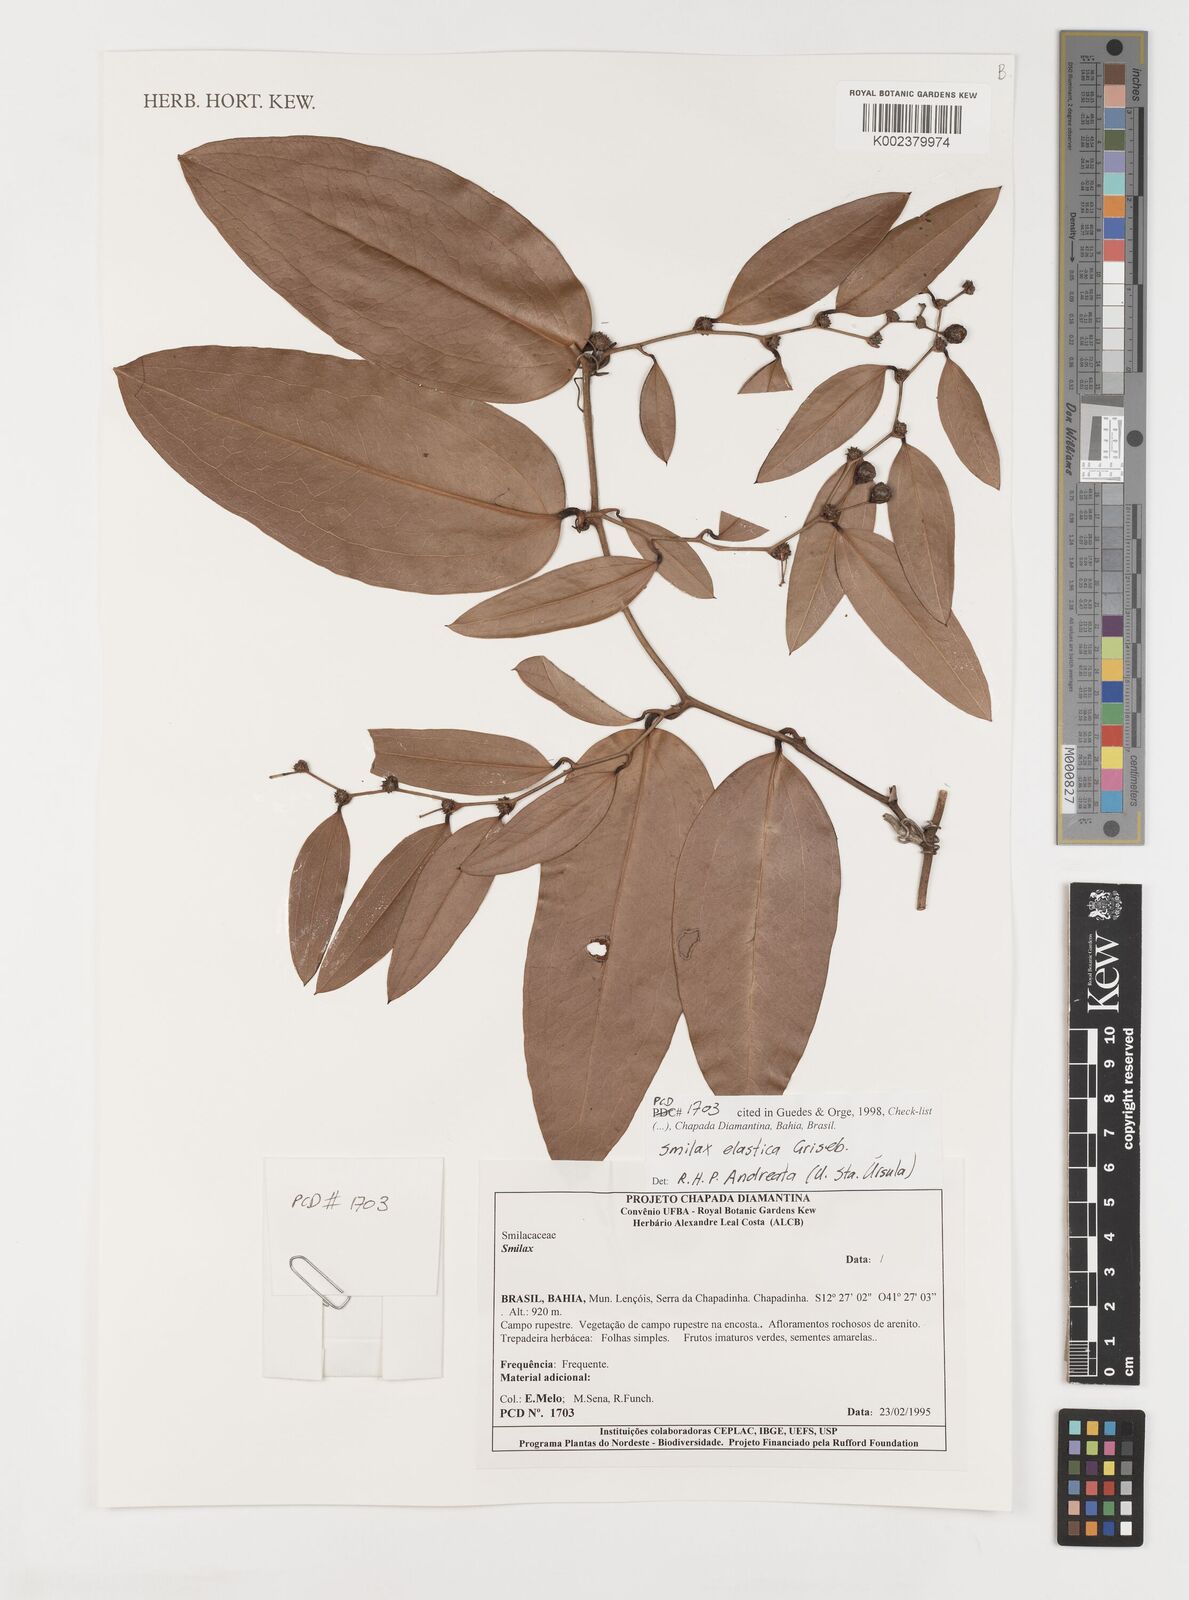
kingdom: Plantae
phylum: Tracheophyta
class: Liliopsida
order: Liliales
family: Smilacaceae
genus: Smilax
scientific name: Smilax elastica
